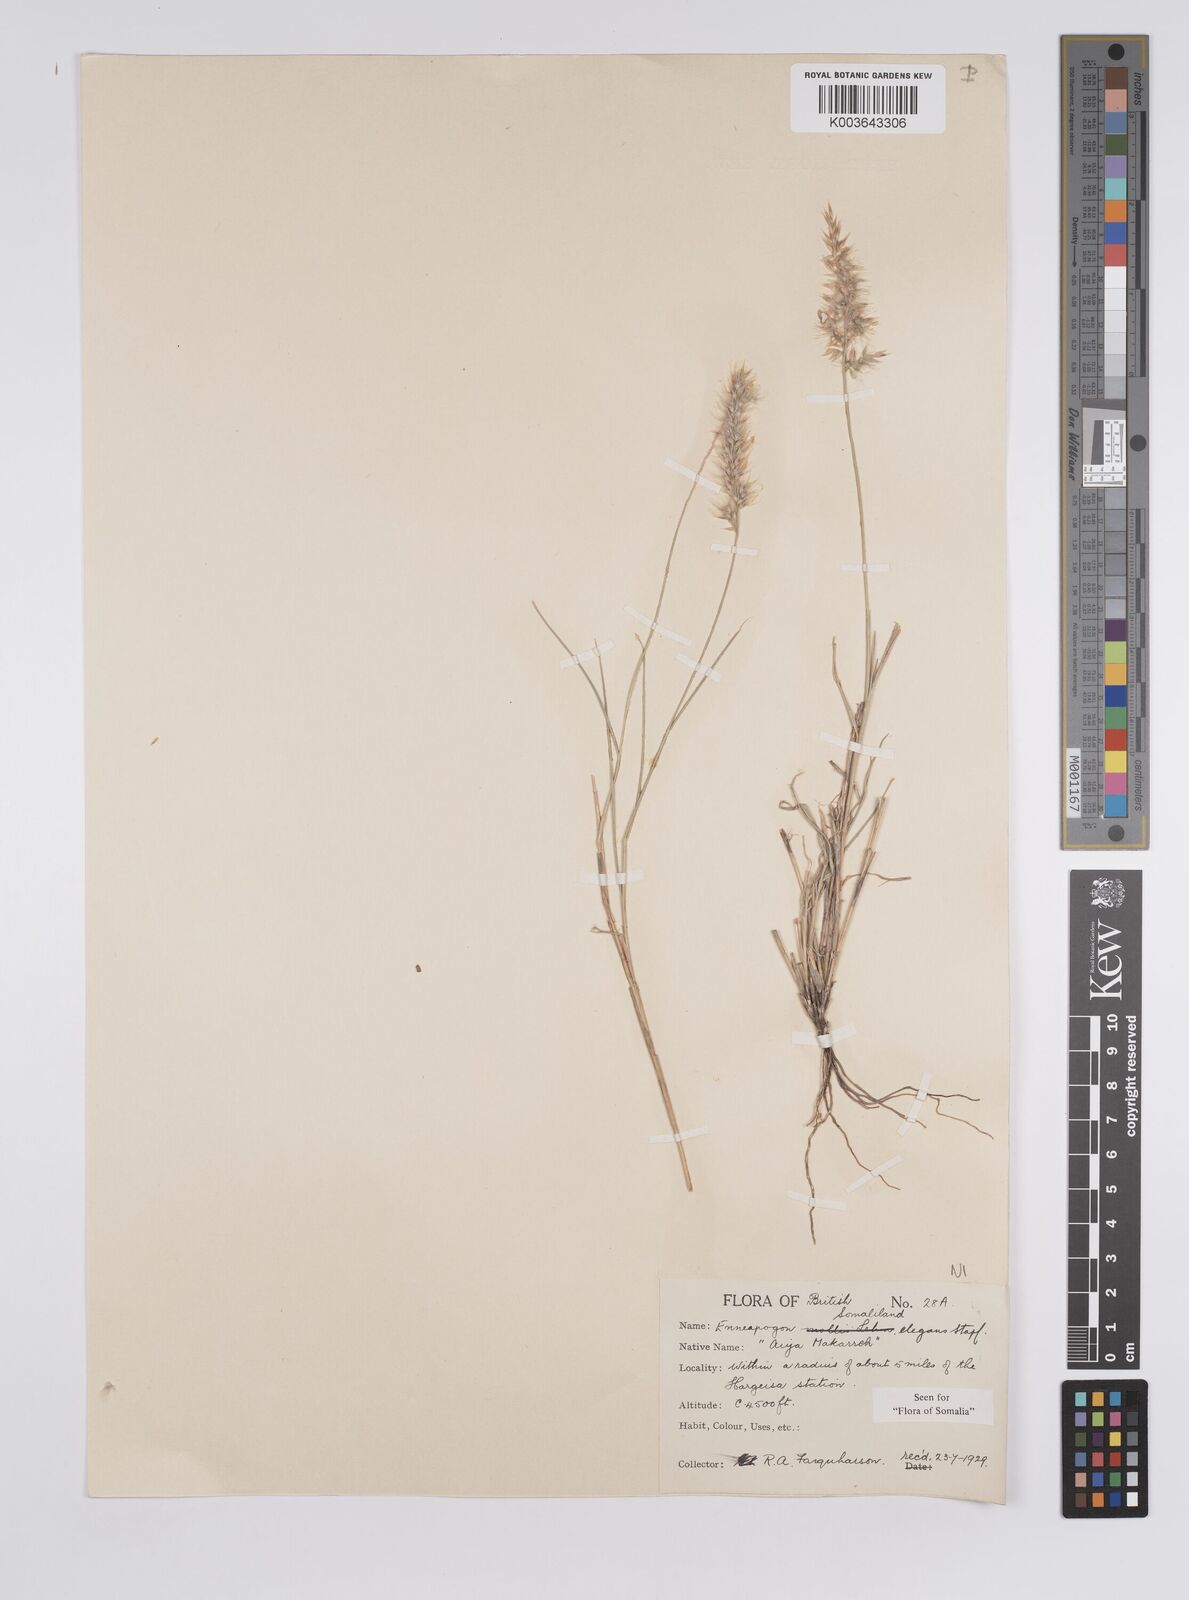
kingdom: Plantae
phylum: Tracheophyta
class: Liliopsida
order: Poales
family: Poaceae
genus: Enneapogon
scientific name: Enneapogon persicus
